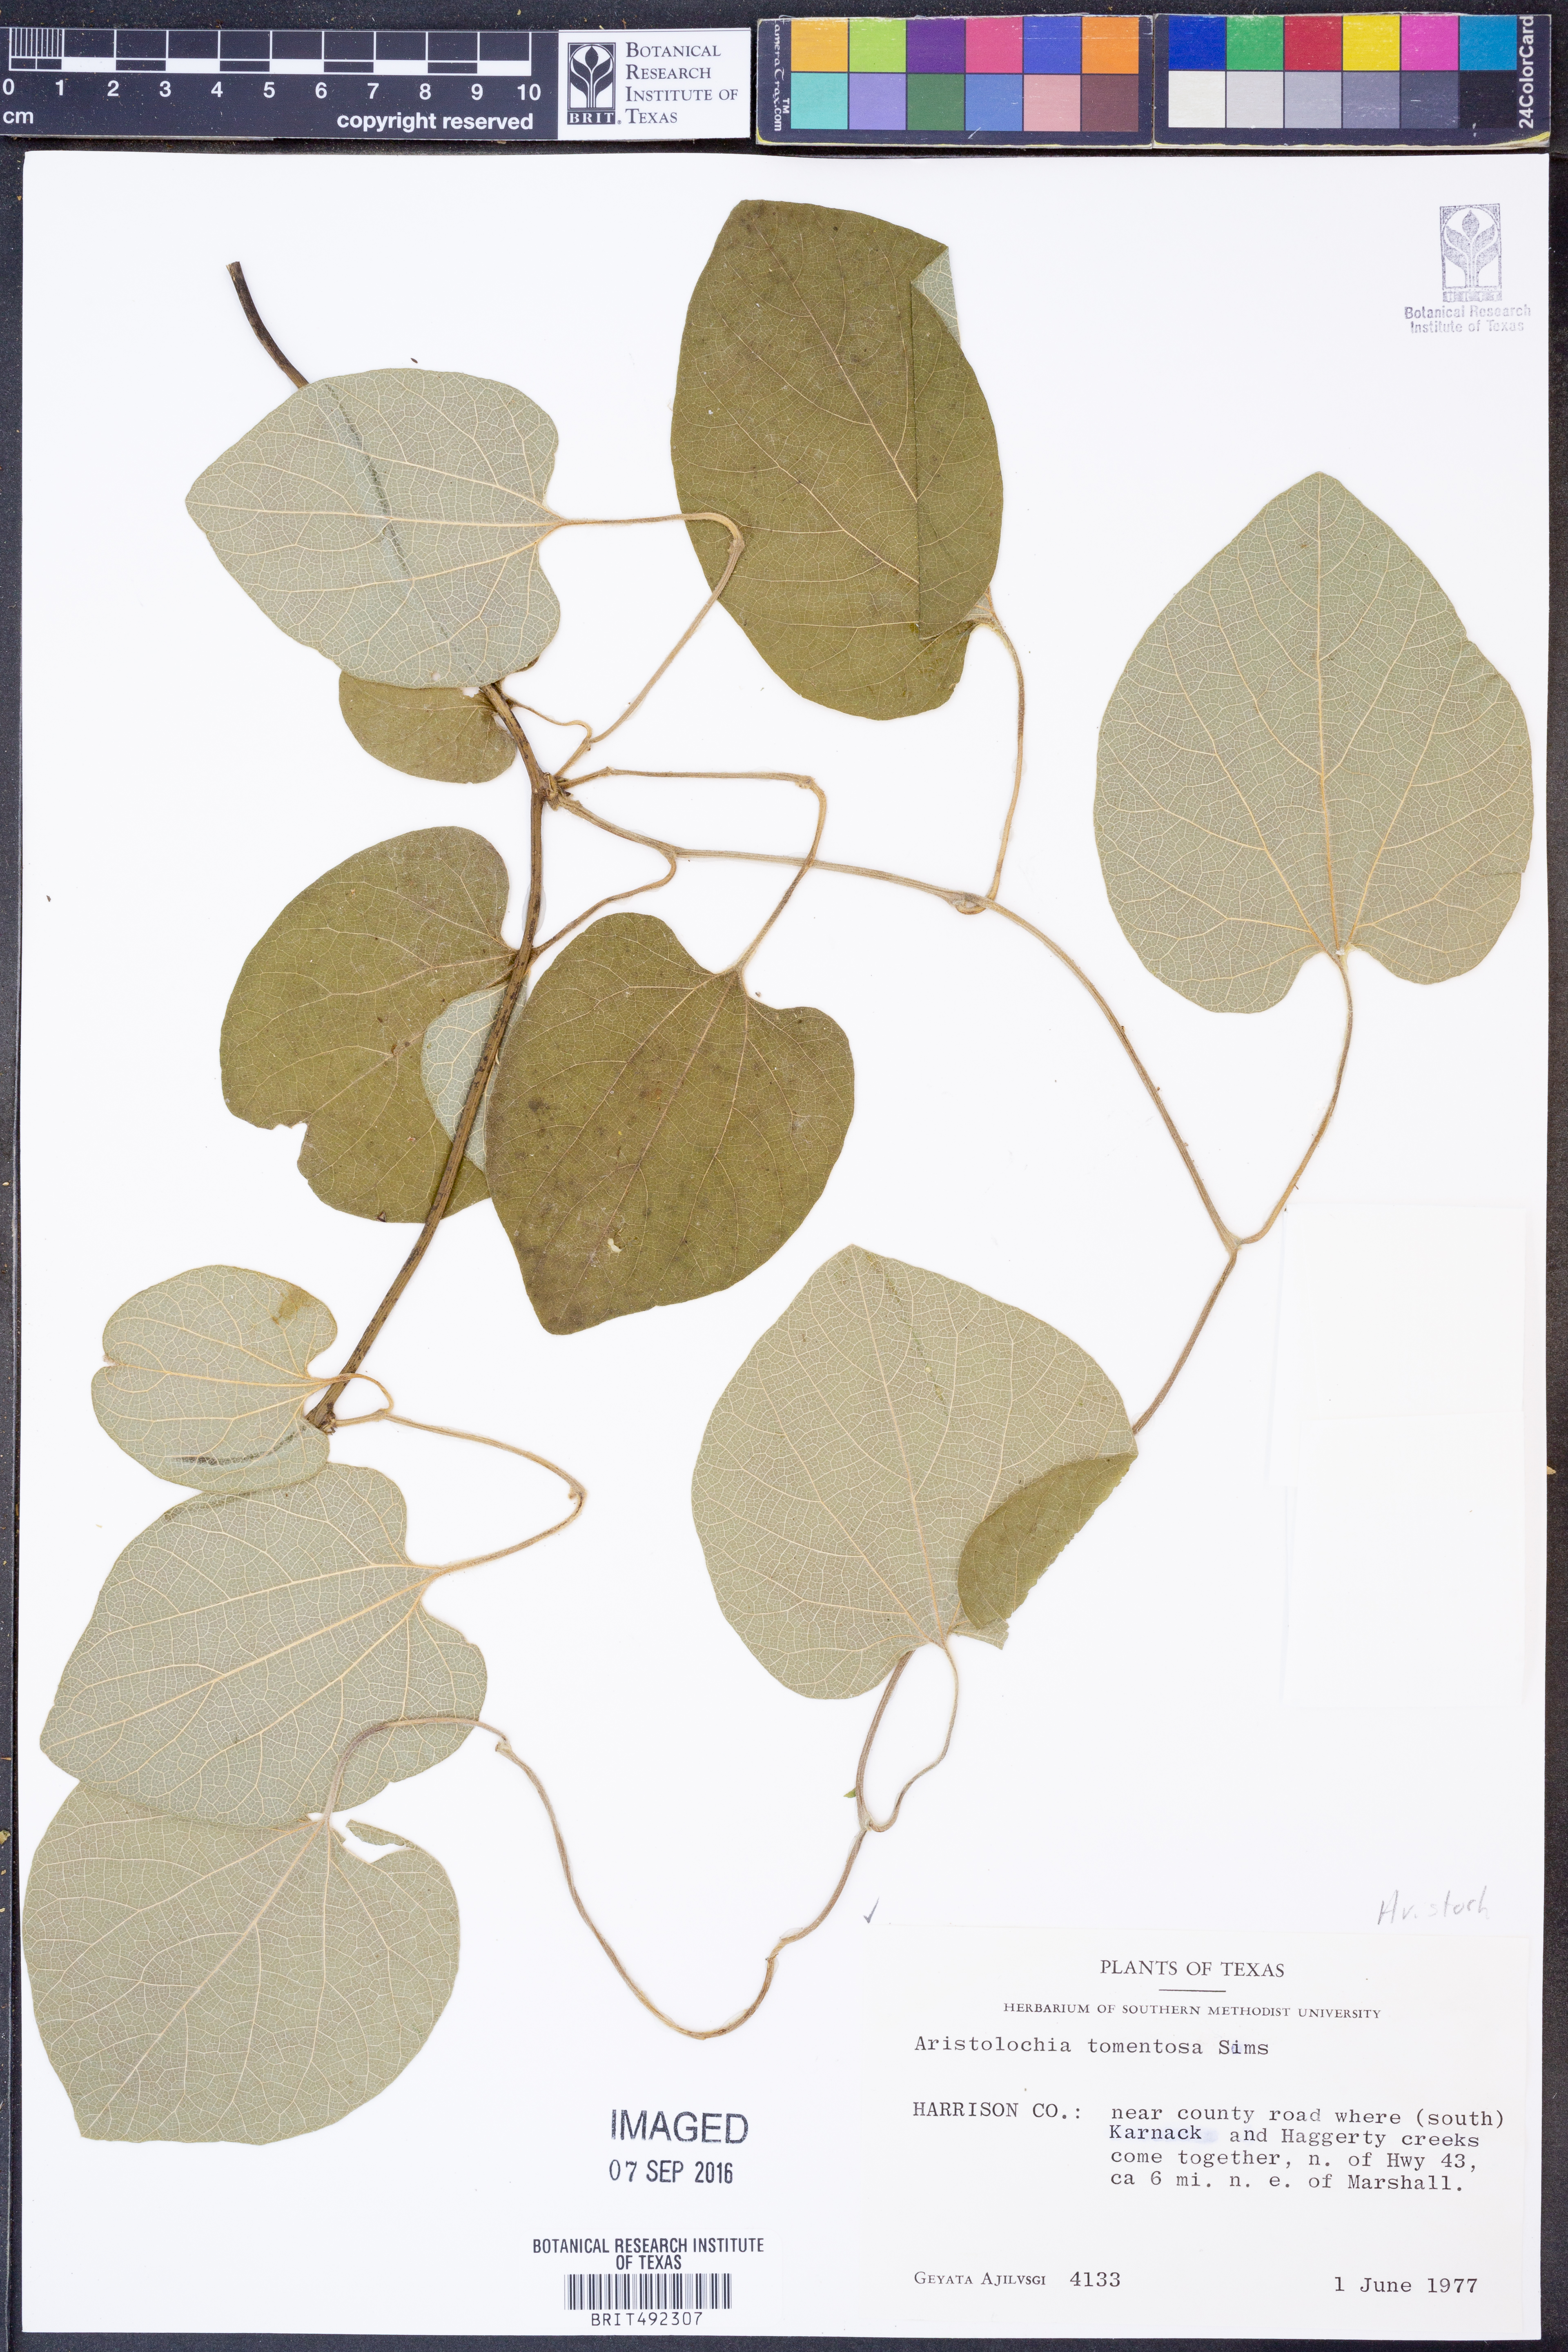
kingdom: Plantae
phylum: Tracheophyta
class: Magnoliopsida
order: Piperales
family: Aristolochiaceae
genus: Isotrema
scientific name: Isotrema tomentosum
